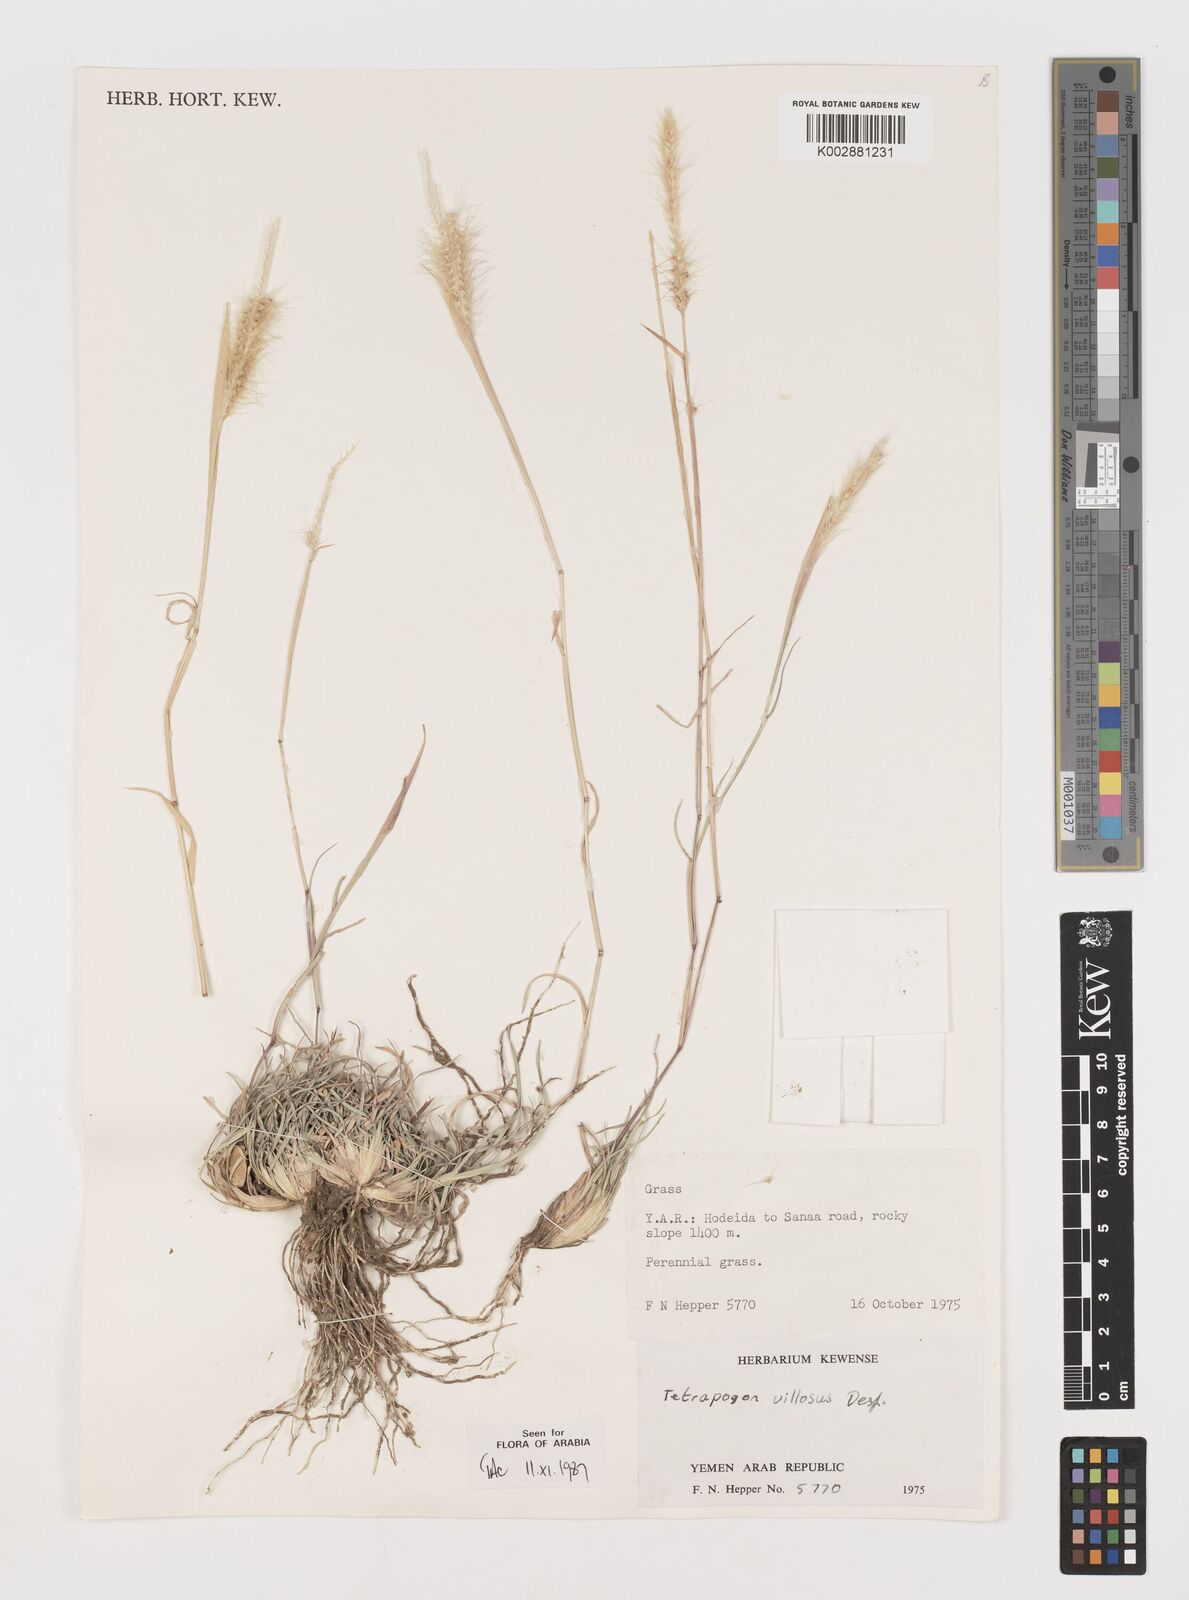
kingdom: Plantae
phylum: Tracheophyta
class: Liliopsida
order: Poales
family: Poaceae
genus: Tetrapogon
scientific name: Tetrapogon villosus
